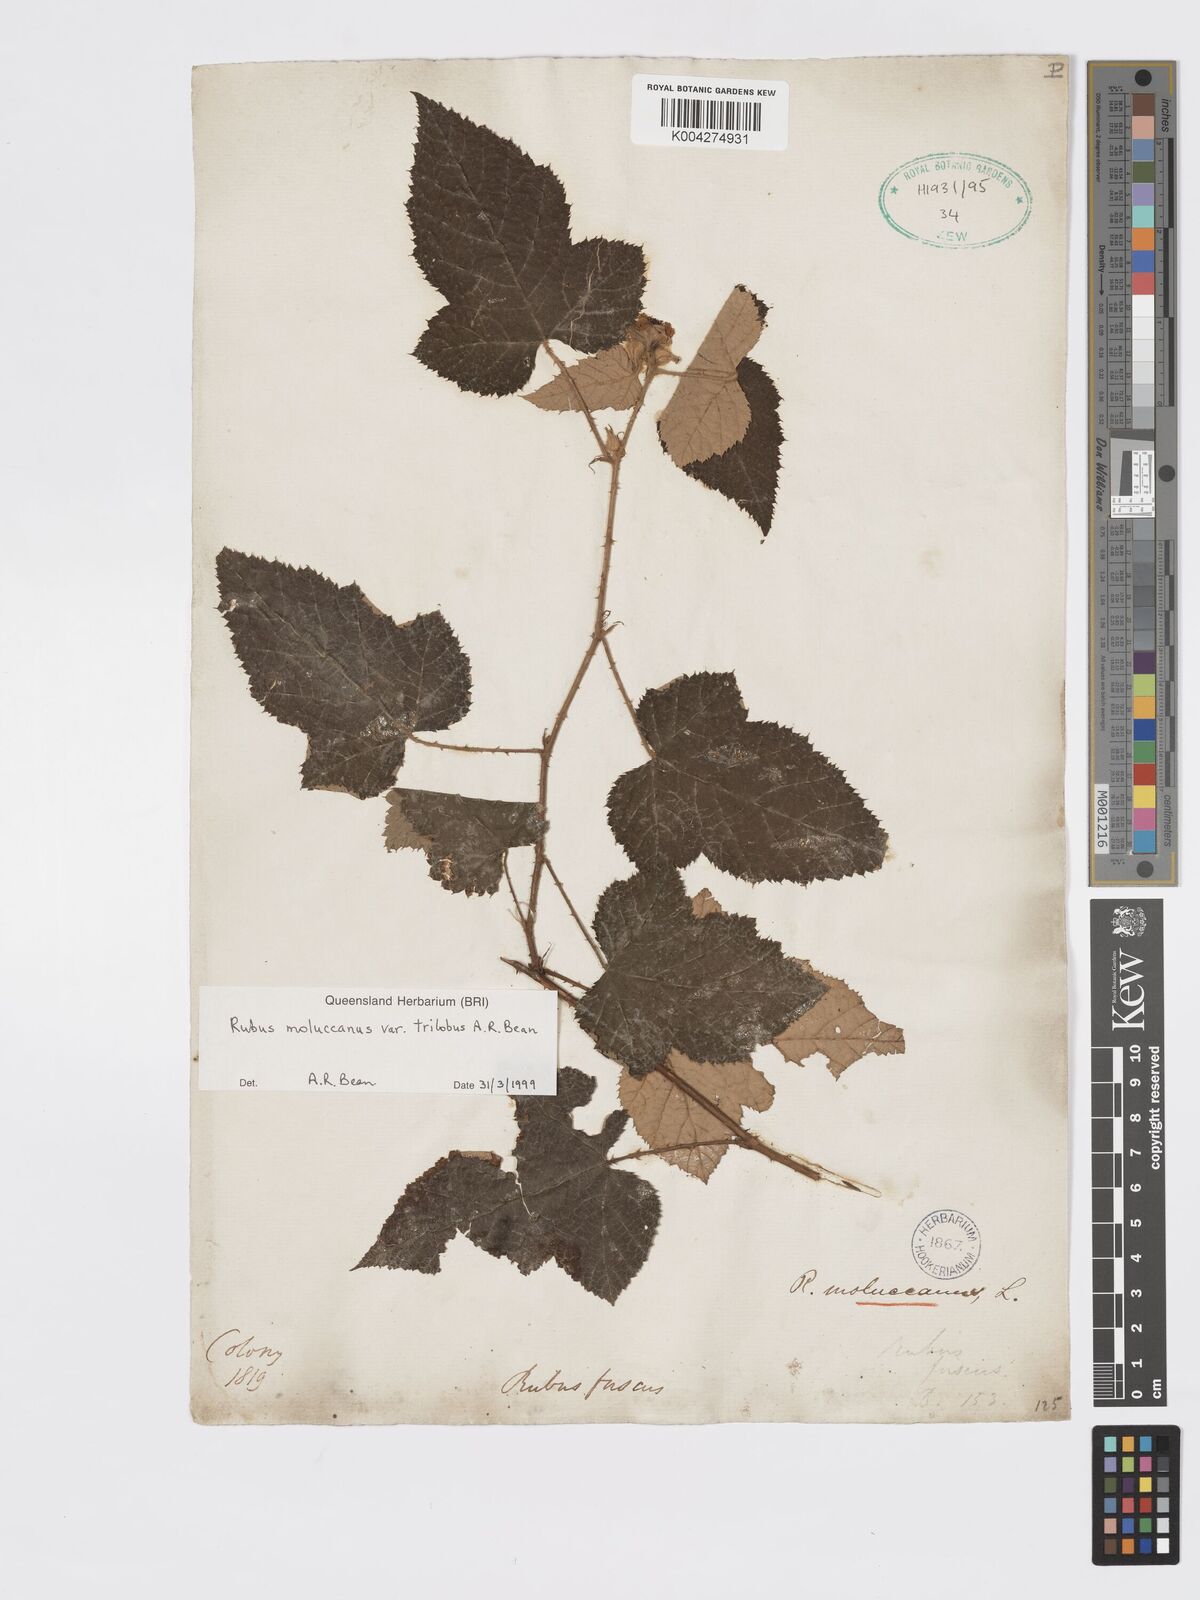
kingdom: Plantae
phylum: Tracheophyta
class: Magnoliopsida
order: Rosales
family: Rosaceae
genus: Rubus
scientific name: Rubus moluccanus
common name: Wild raspberry
